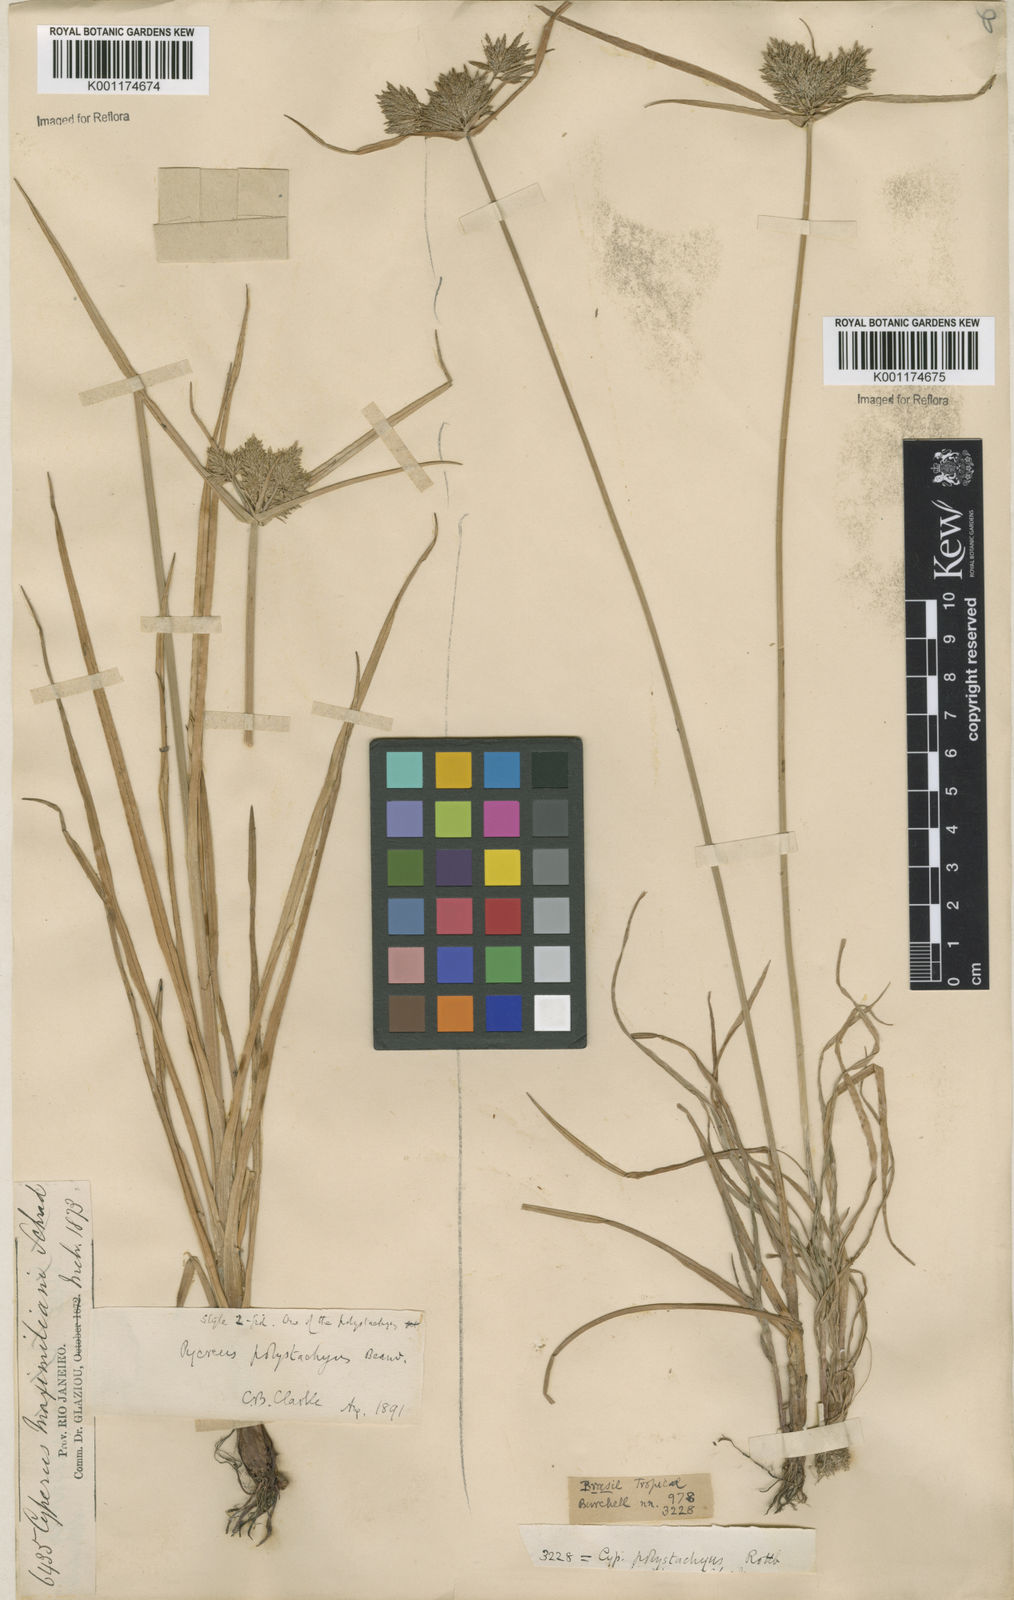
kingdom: Plantae
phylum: Tracheophyta
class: Liliopsida
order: Poales
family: Cyperaceae
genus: Cyperus
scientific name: Cyperus polystachyos
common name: Bunchy flat sedge
